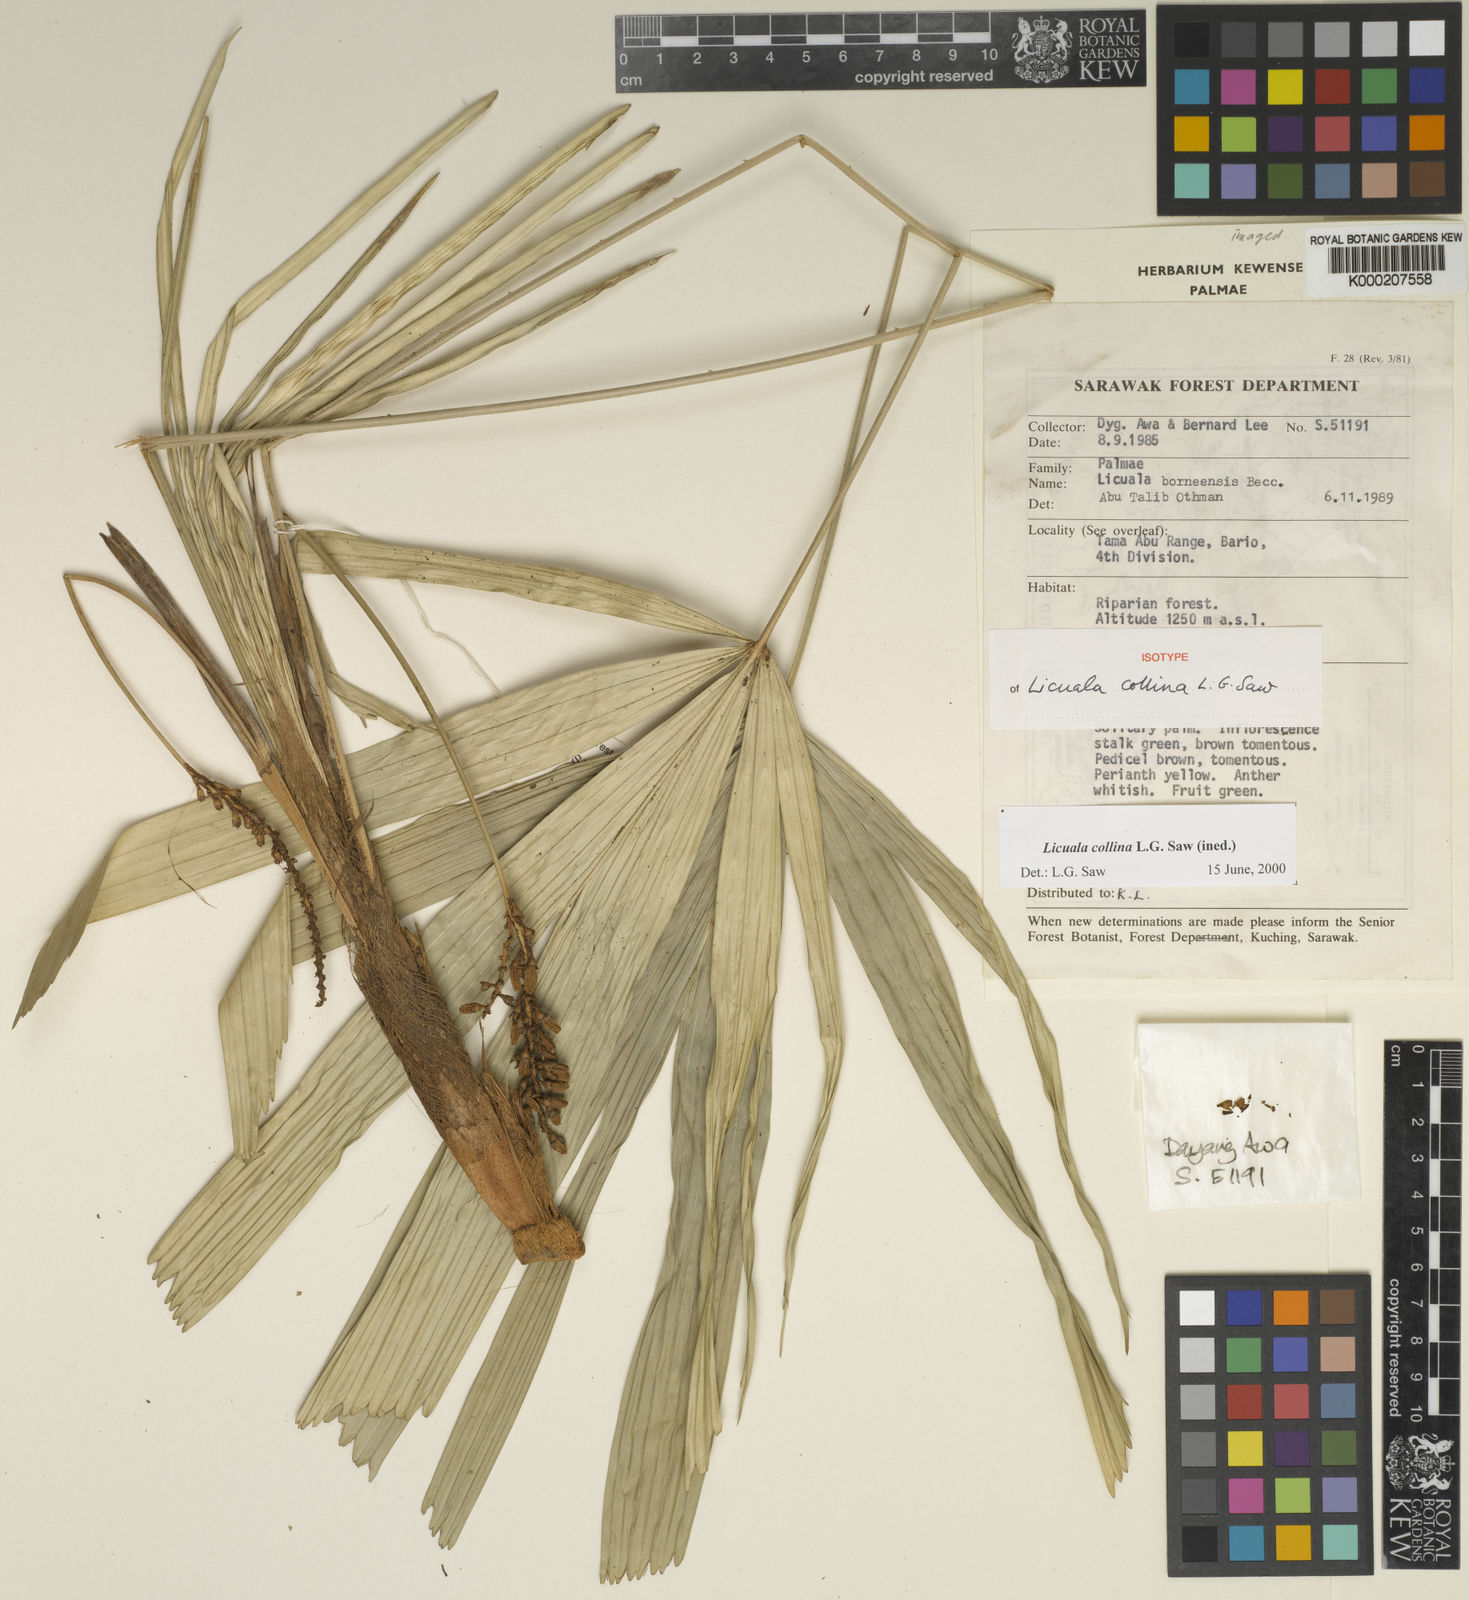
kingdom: Plantae
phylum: Tracheophyta
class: Liliopsida
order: Arecales
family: Arecaceae
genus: Licuala
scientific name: Licuala collina
